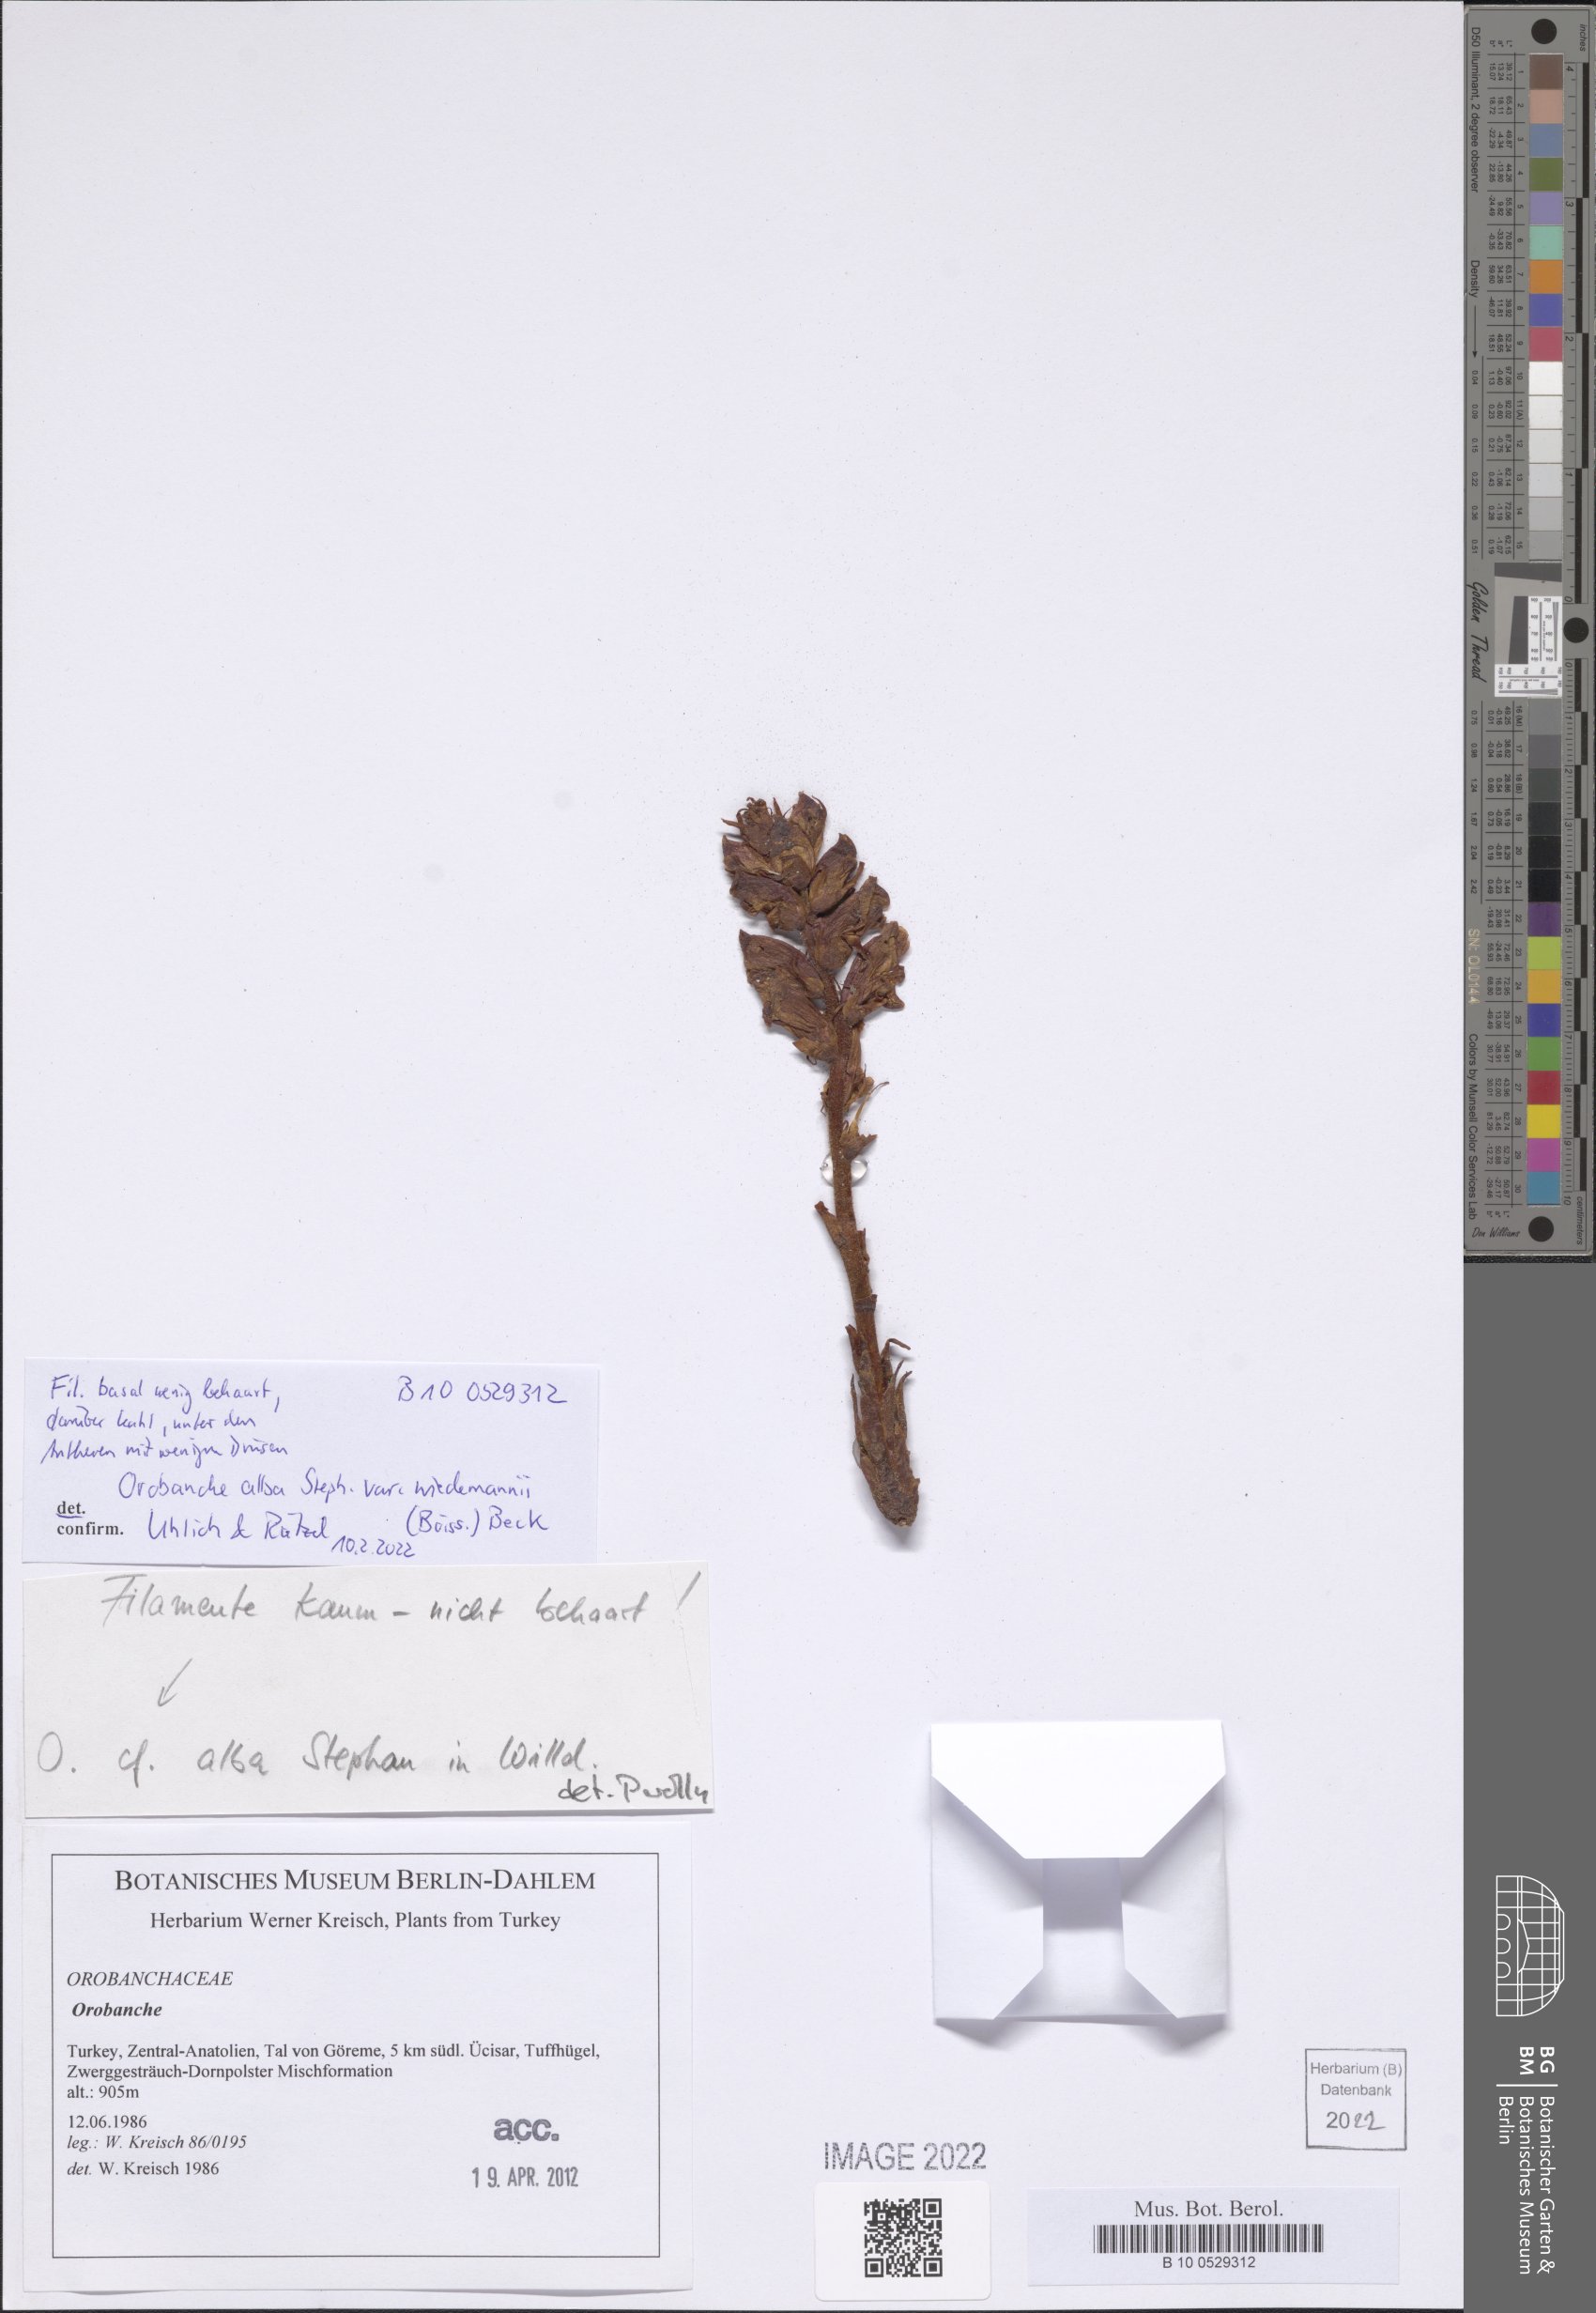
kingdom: Plantae
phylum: Tracheophyta
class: Magnoliopsida
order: Lamiales
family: Orobanchaceae
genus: Orobanche
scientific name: Orobanche alba
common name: Thyme broomrape
